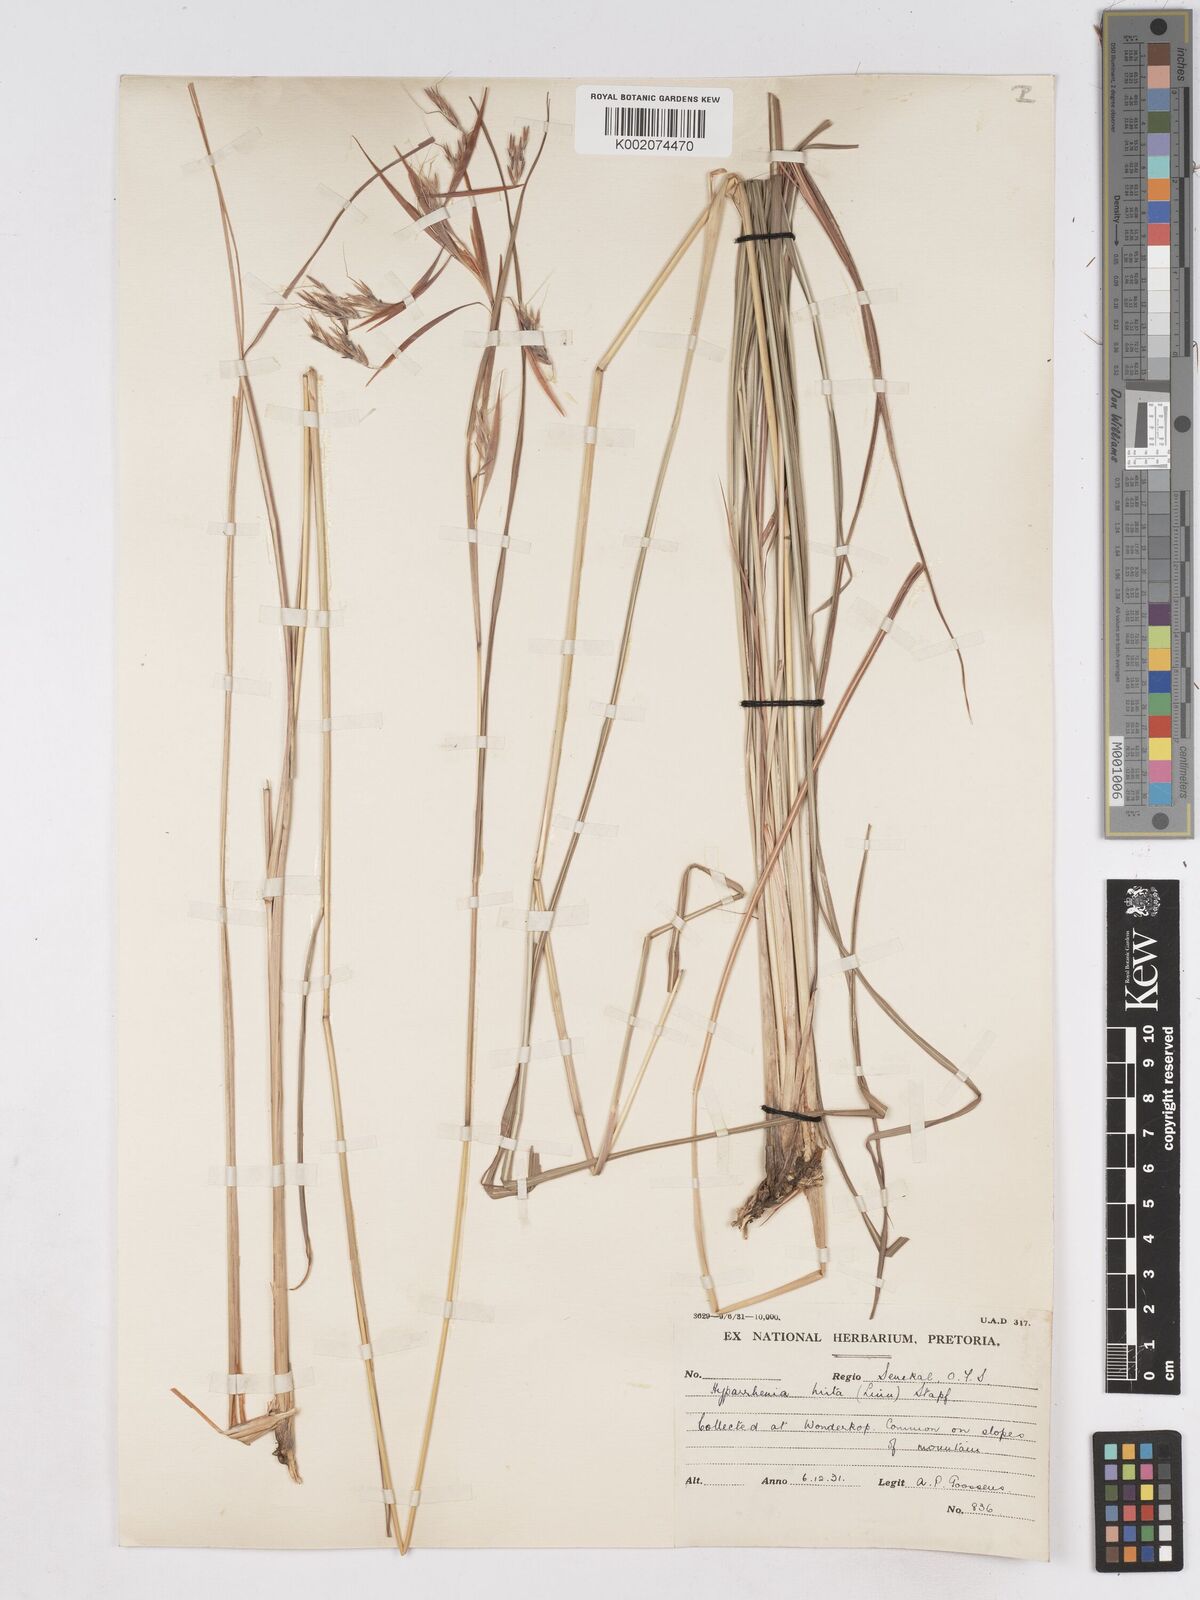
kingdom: Plantae
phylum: Tracheophyta
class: Liliopsida
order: Poales
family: Poaceae
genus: Hyparrhenia
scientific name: Hyparrhenia hirta
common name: Thatching grass
